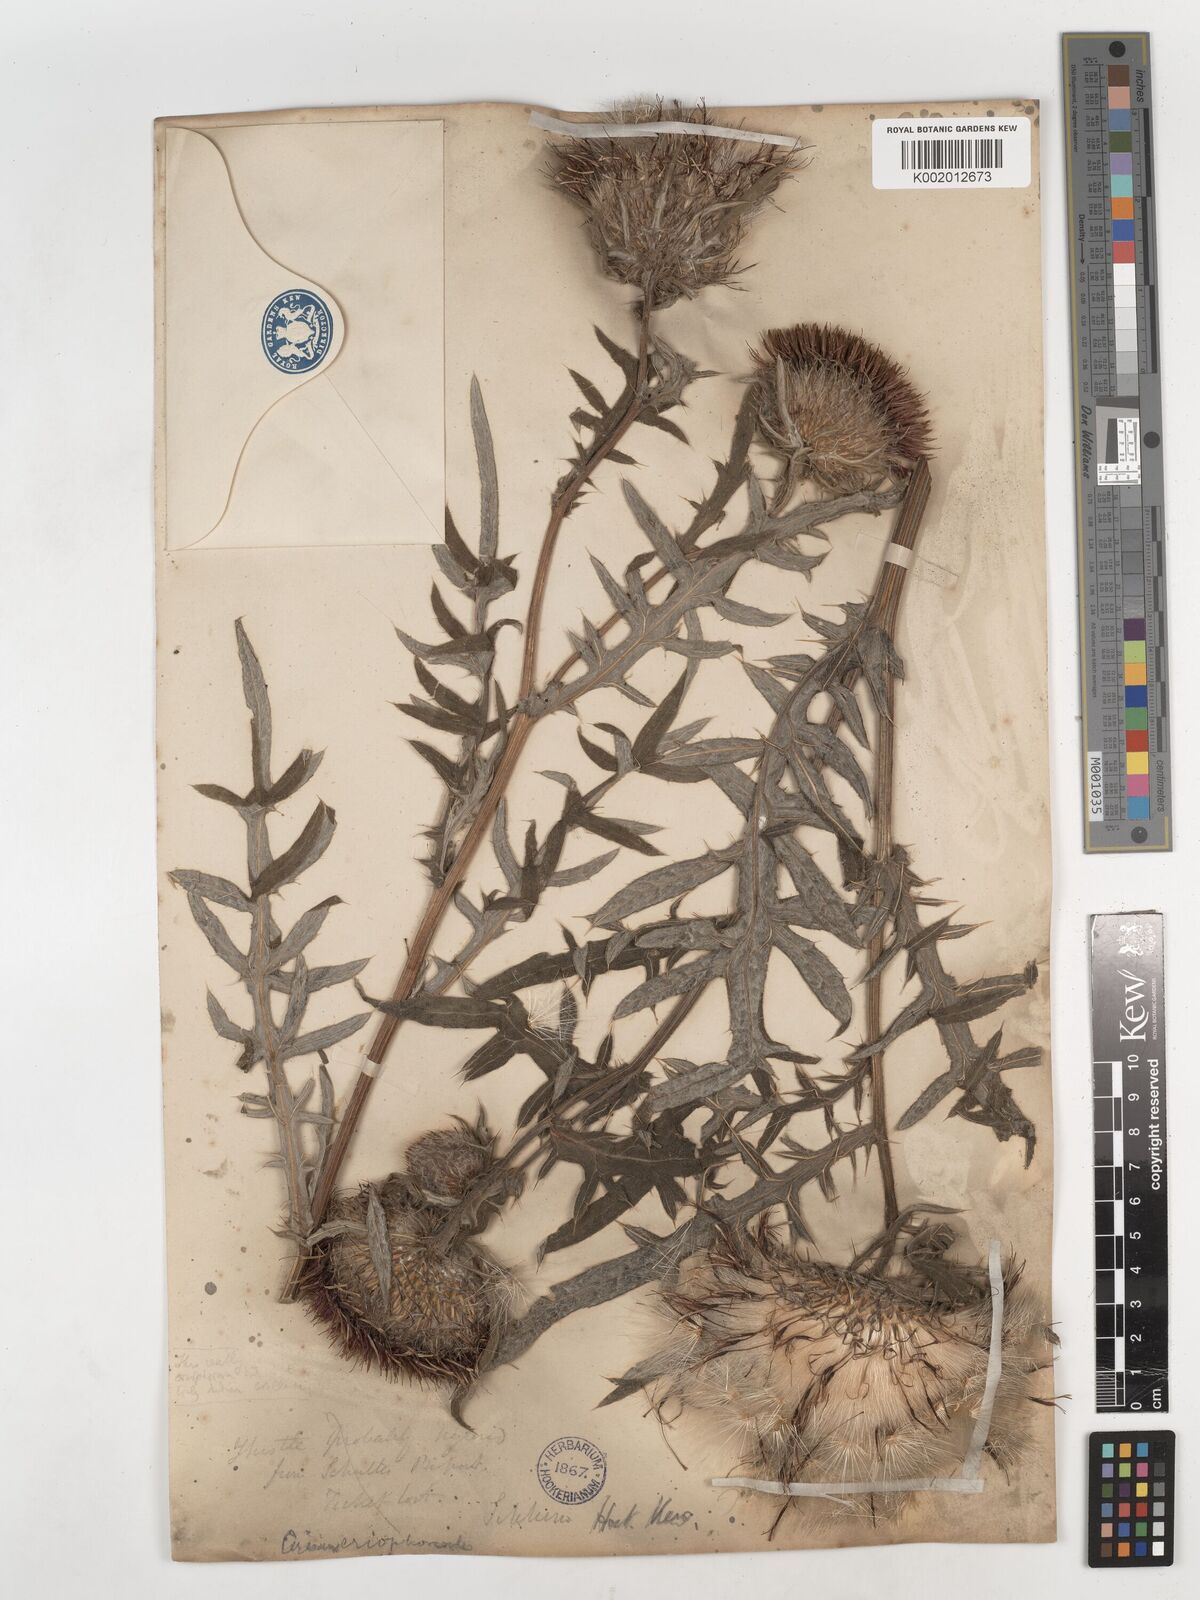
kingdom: Plantae
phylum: Tracheophyta
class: Magnoliopsida
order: Asterales
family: Asteraceae
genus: Cirsium
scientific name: Cirsium eriophoroides
